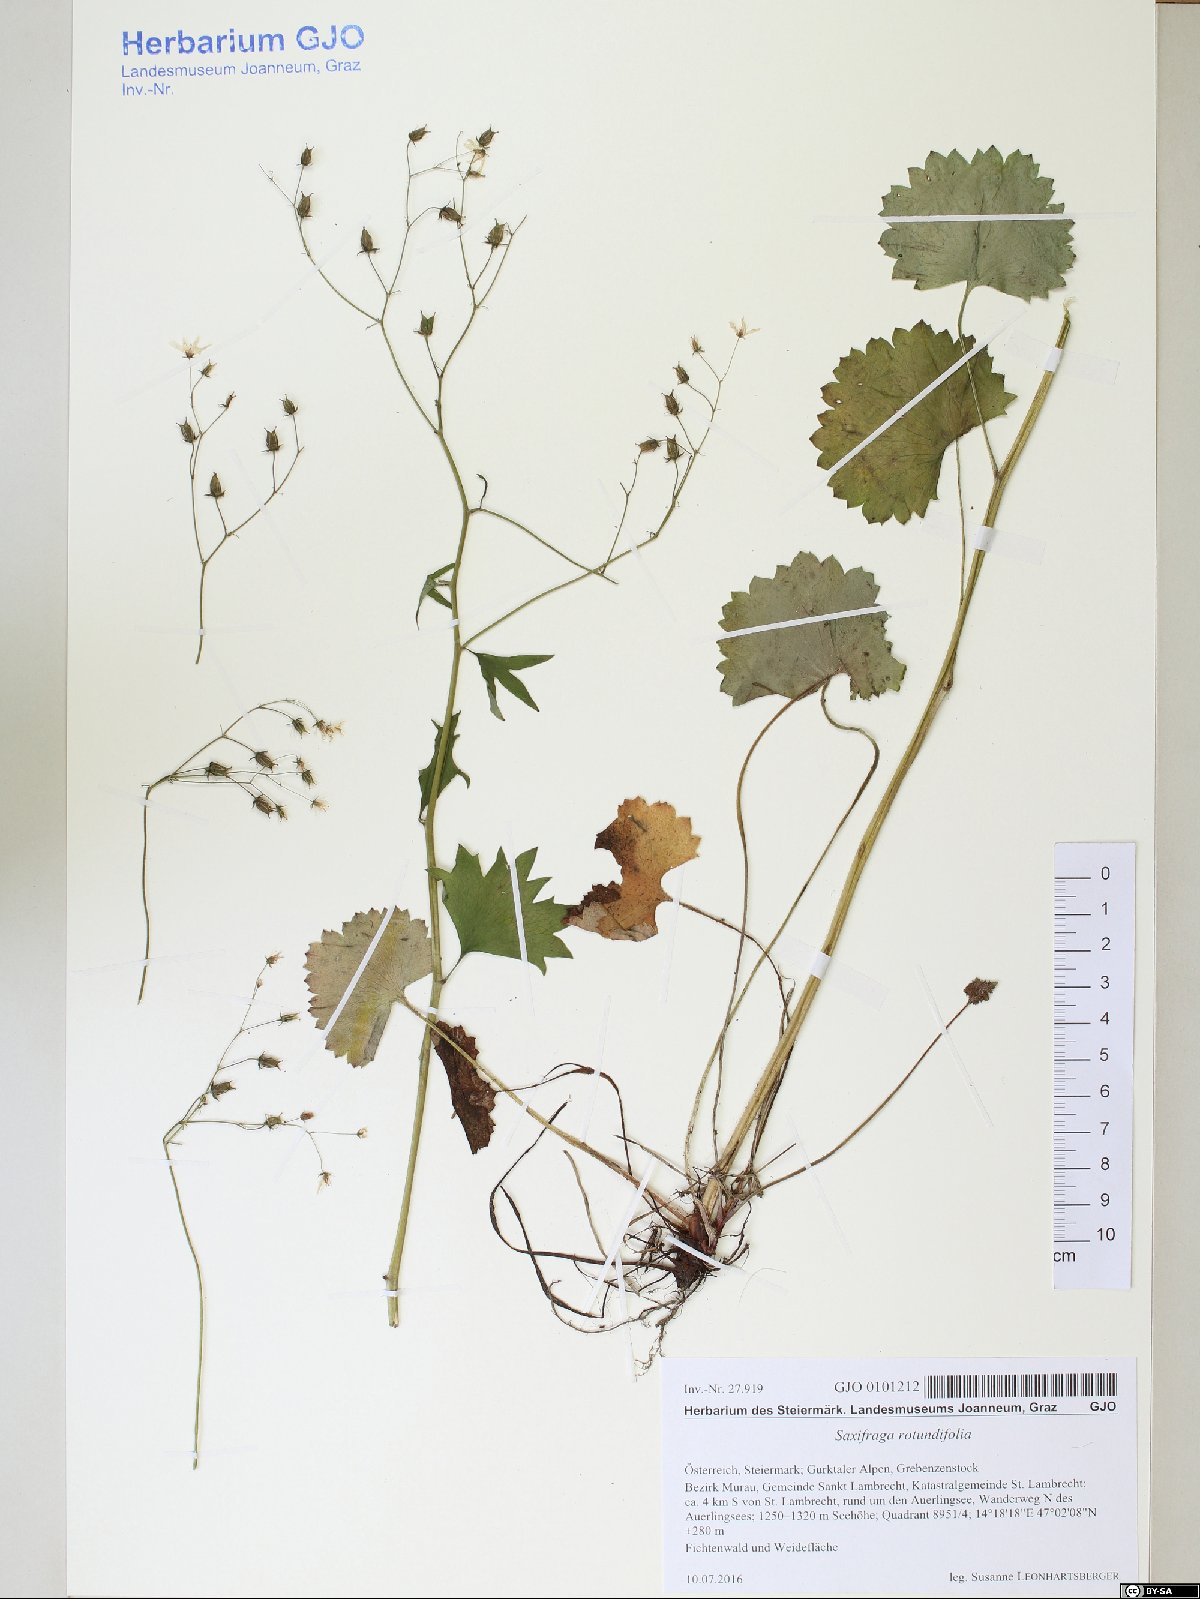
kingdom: Plantae
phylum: Tracheophyta
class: Magnoliopsida
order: Saxifragales
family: Saxifragaceae
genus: Saxifraga
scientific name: Saxifraga rotundifolia
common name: Round-leaved saxifrage
